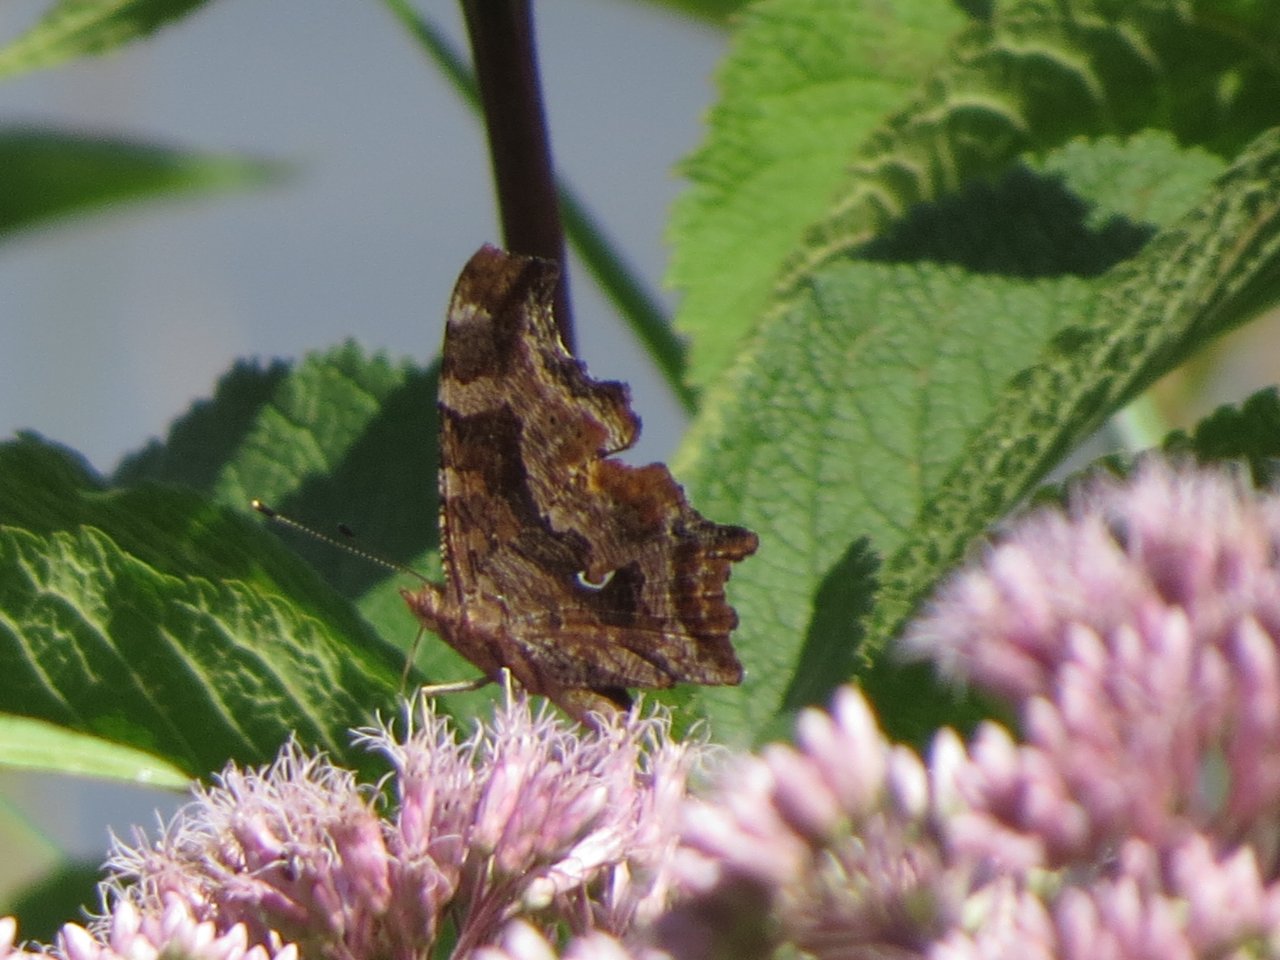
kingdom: Animalia
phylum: Arthropoda
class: Insecta
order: Lepidoptera
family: Nymphalidae
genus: Polygonia
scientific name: Polygonia comma
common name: Eastern Comma
